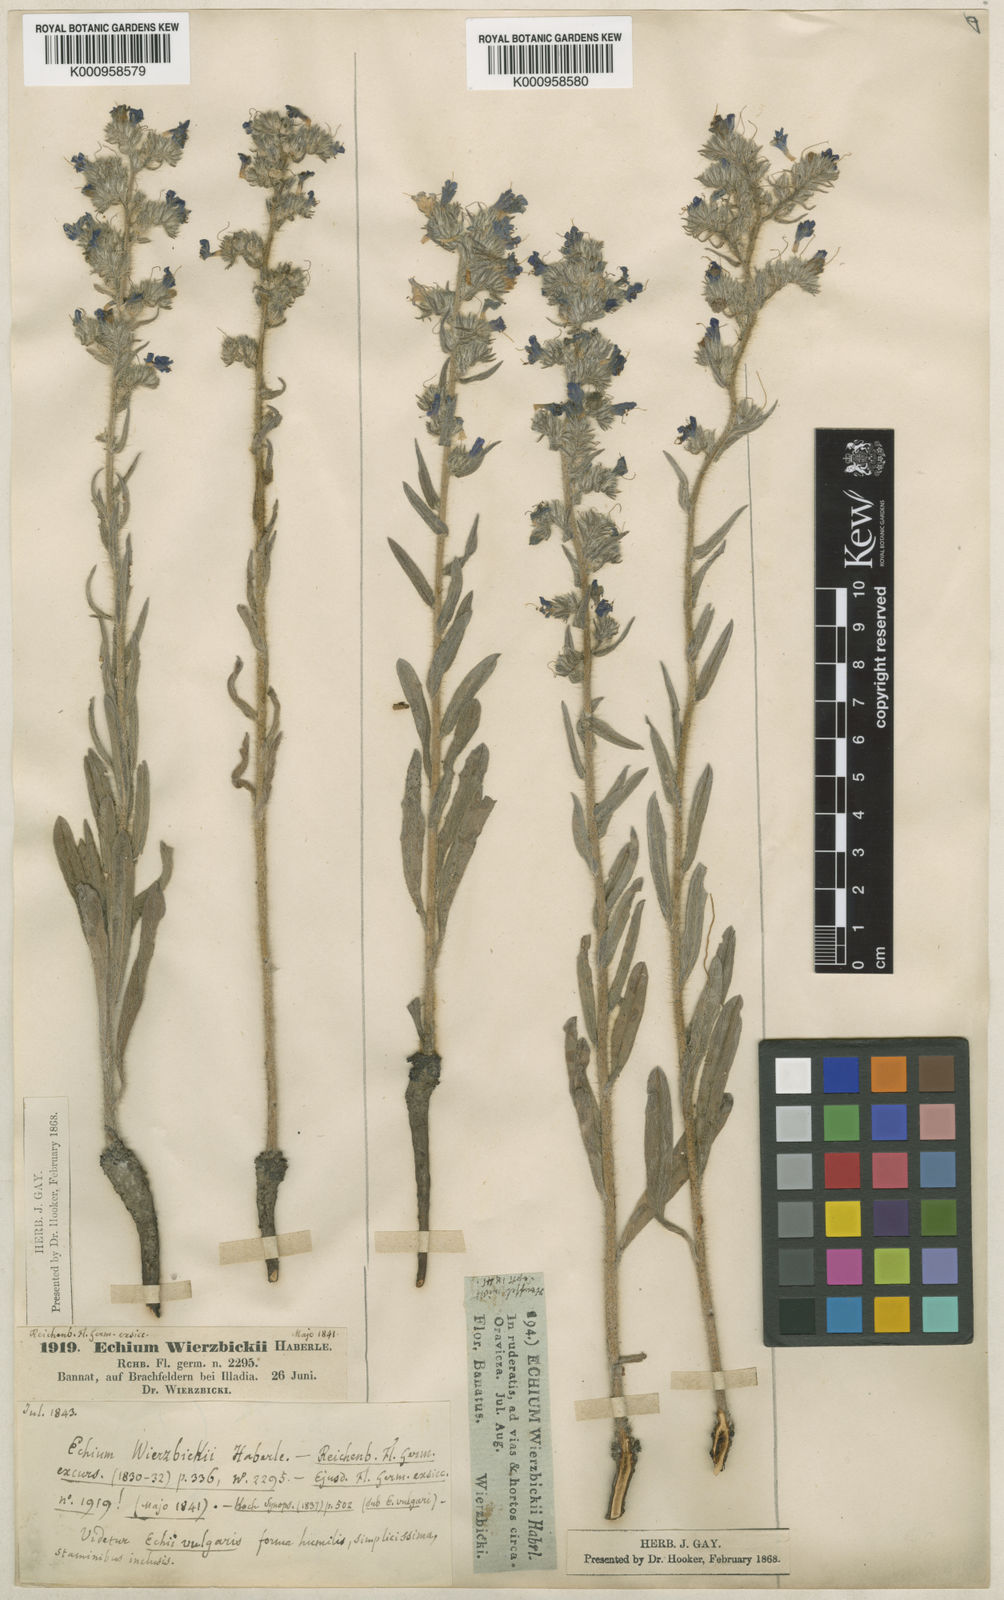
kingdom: Plantae
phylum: Tracheophyta
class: Magnoliopsida
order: Boraginales
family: Boraginaceae
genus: Echium
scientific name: Echium vulgare
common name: Common viper's bugloss
